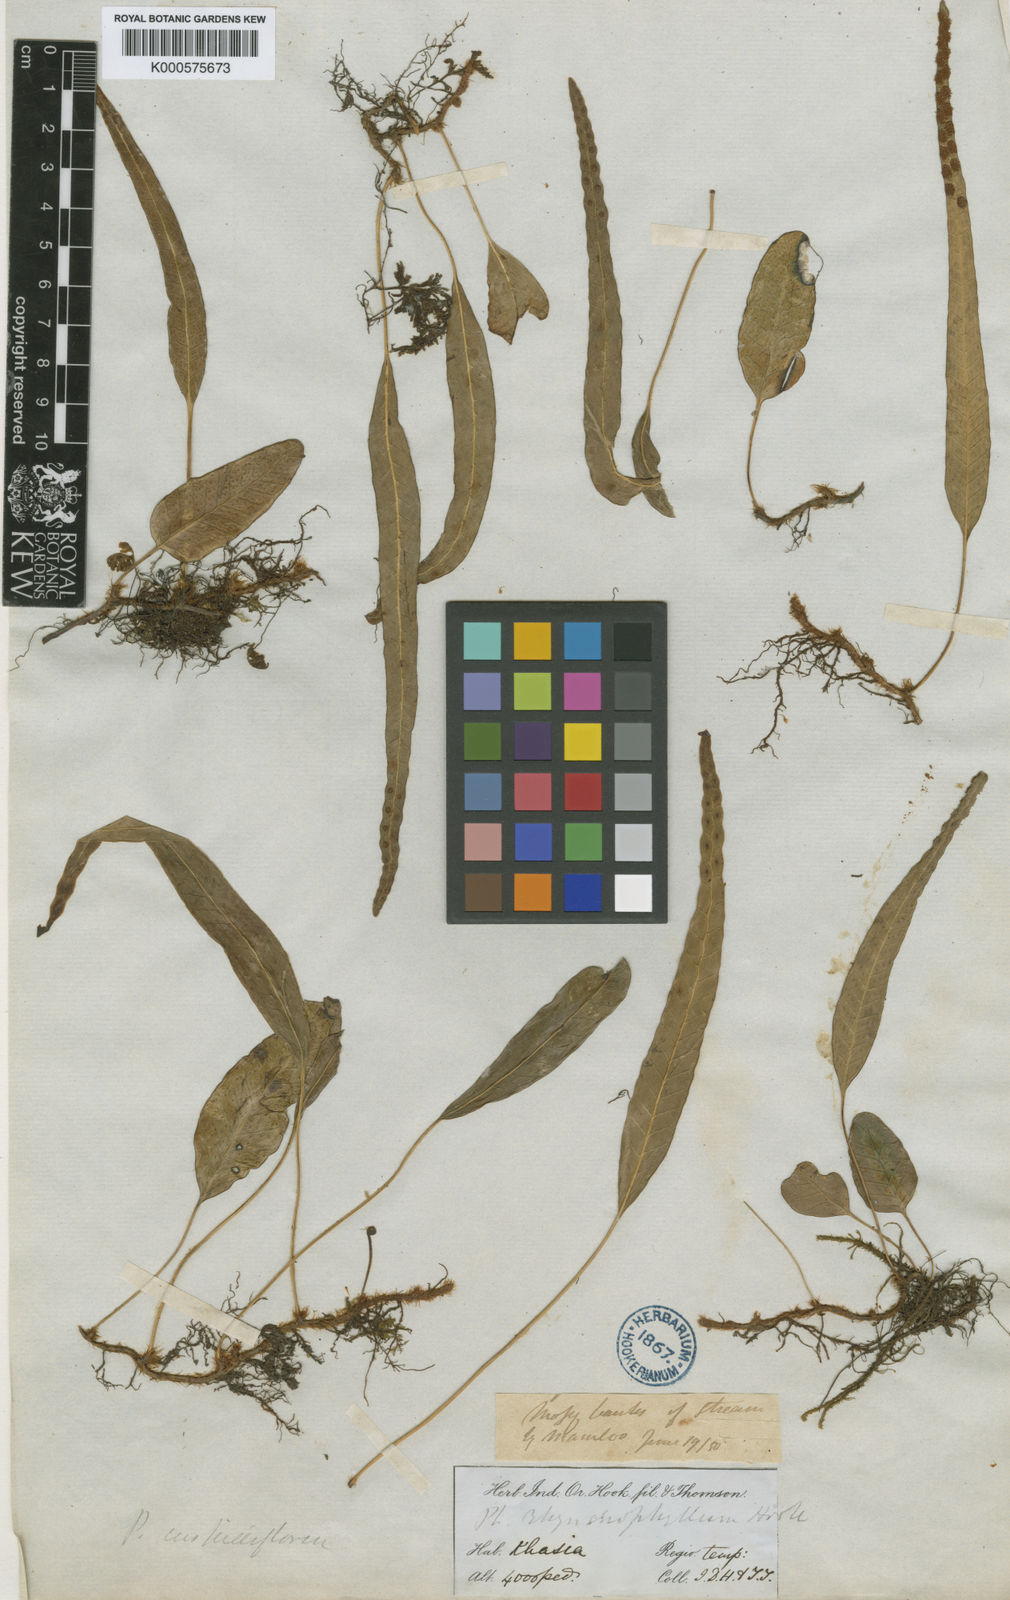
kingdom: Plantae
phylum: Tracheophyta
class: Polypodiopsida
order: Polypodiales
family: Polypodiaceae
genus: Selliguea
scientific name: Selliguea
